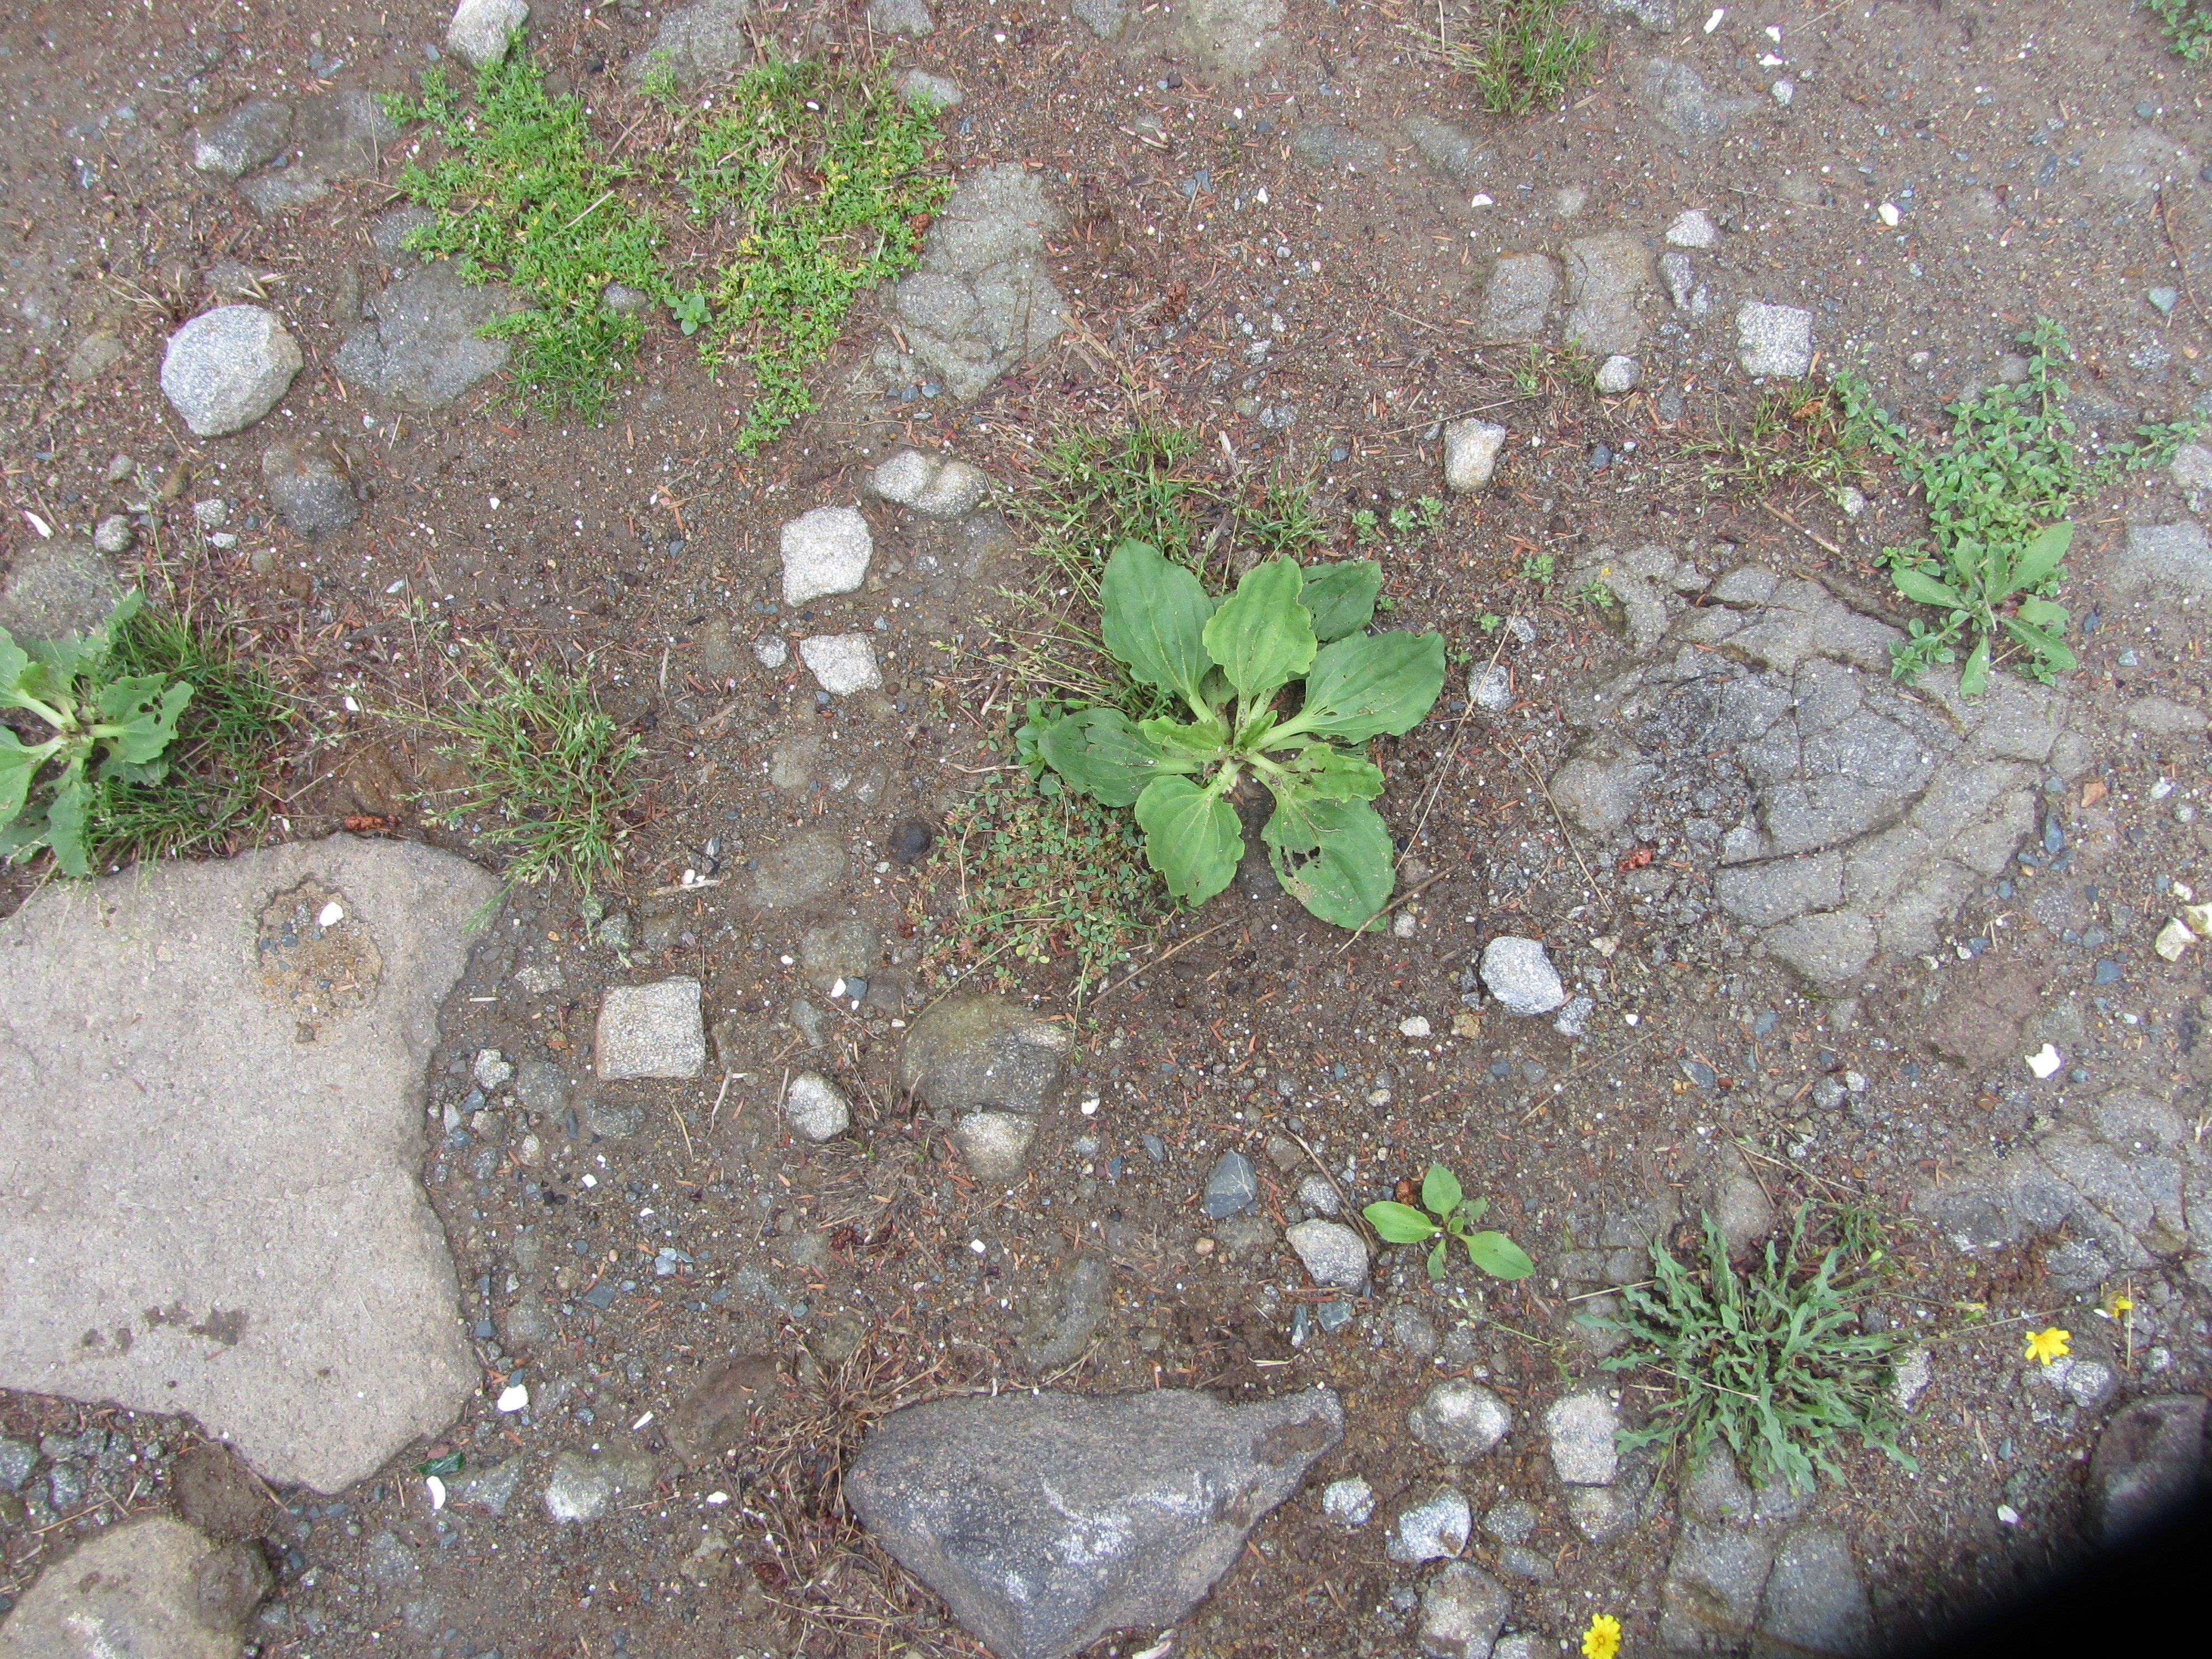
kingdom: Plantae
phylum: Tracheophyta
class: Magnoliopsida
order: Fabales
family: Fabaceae
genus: Trifolium
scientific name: Trifolium glomeratum
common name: Clustered clover
